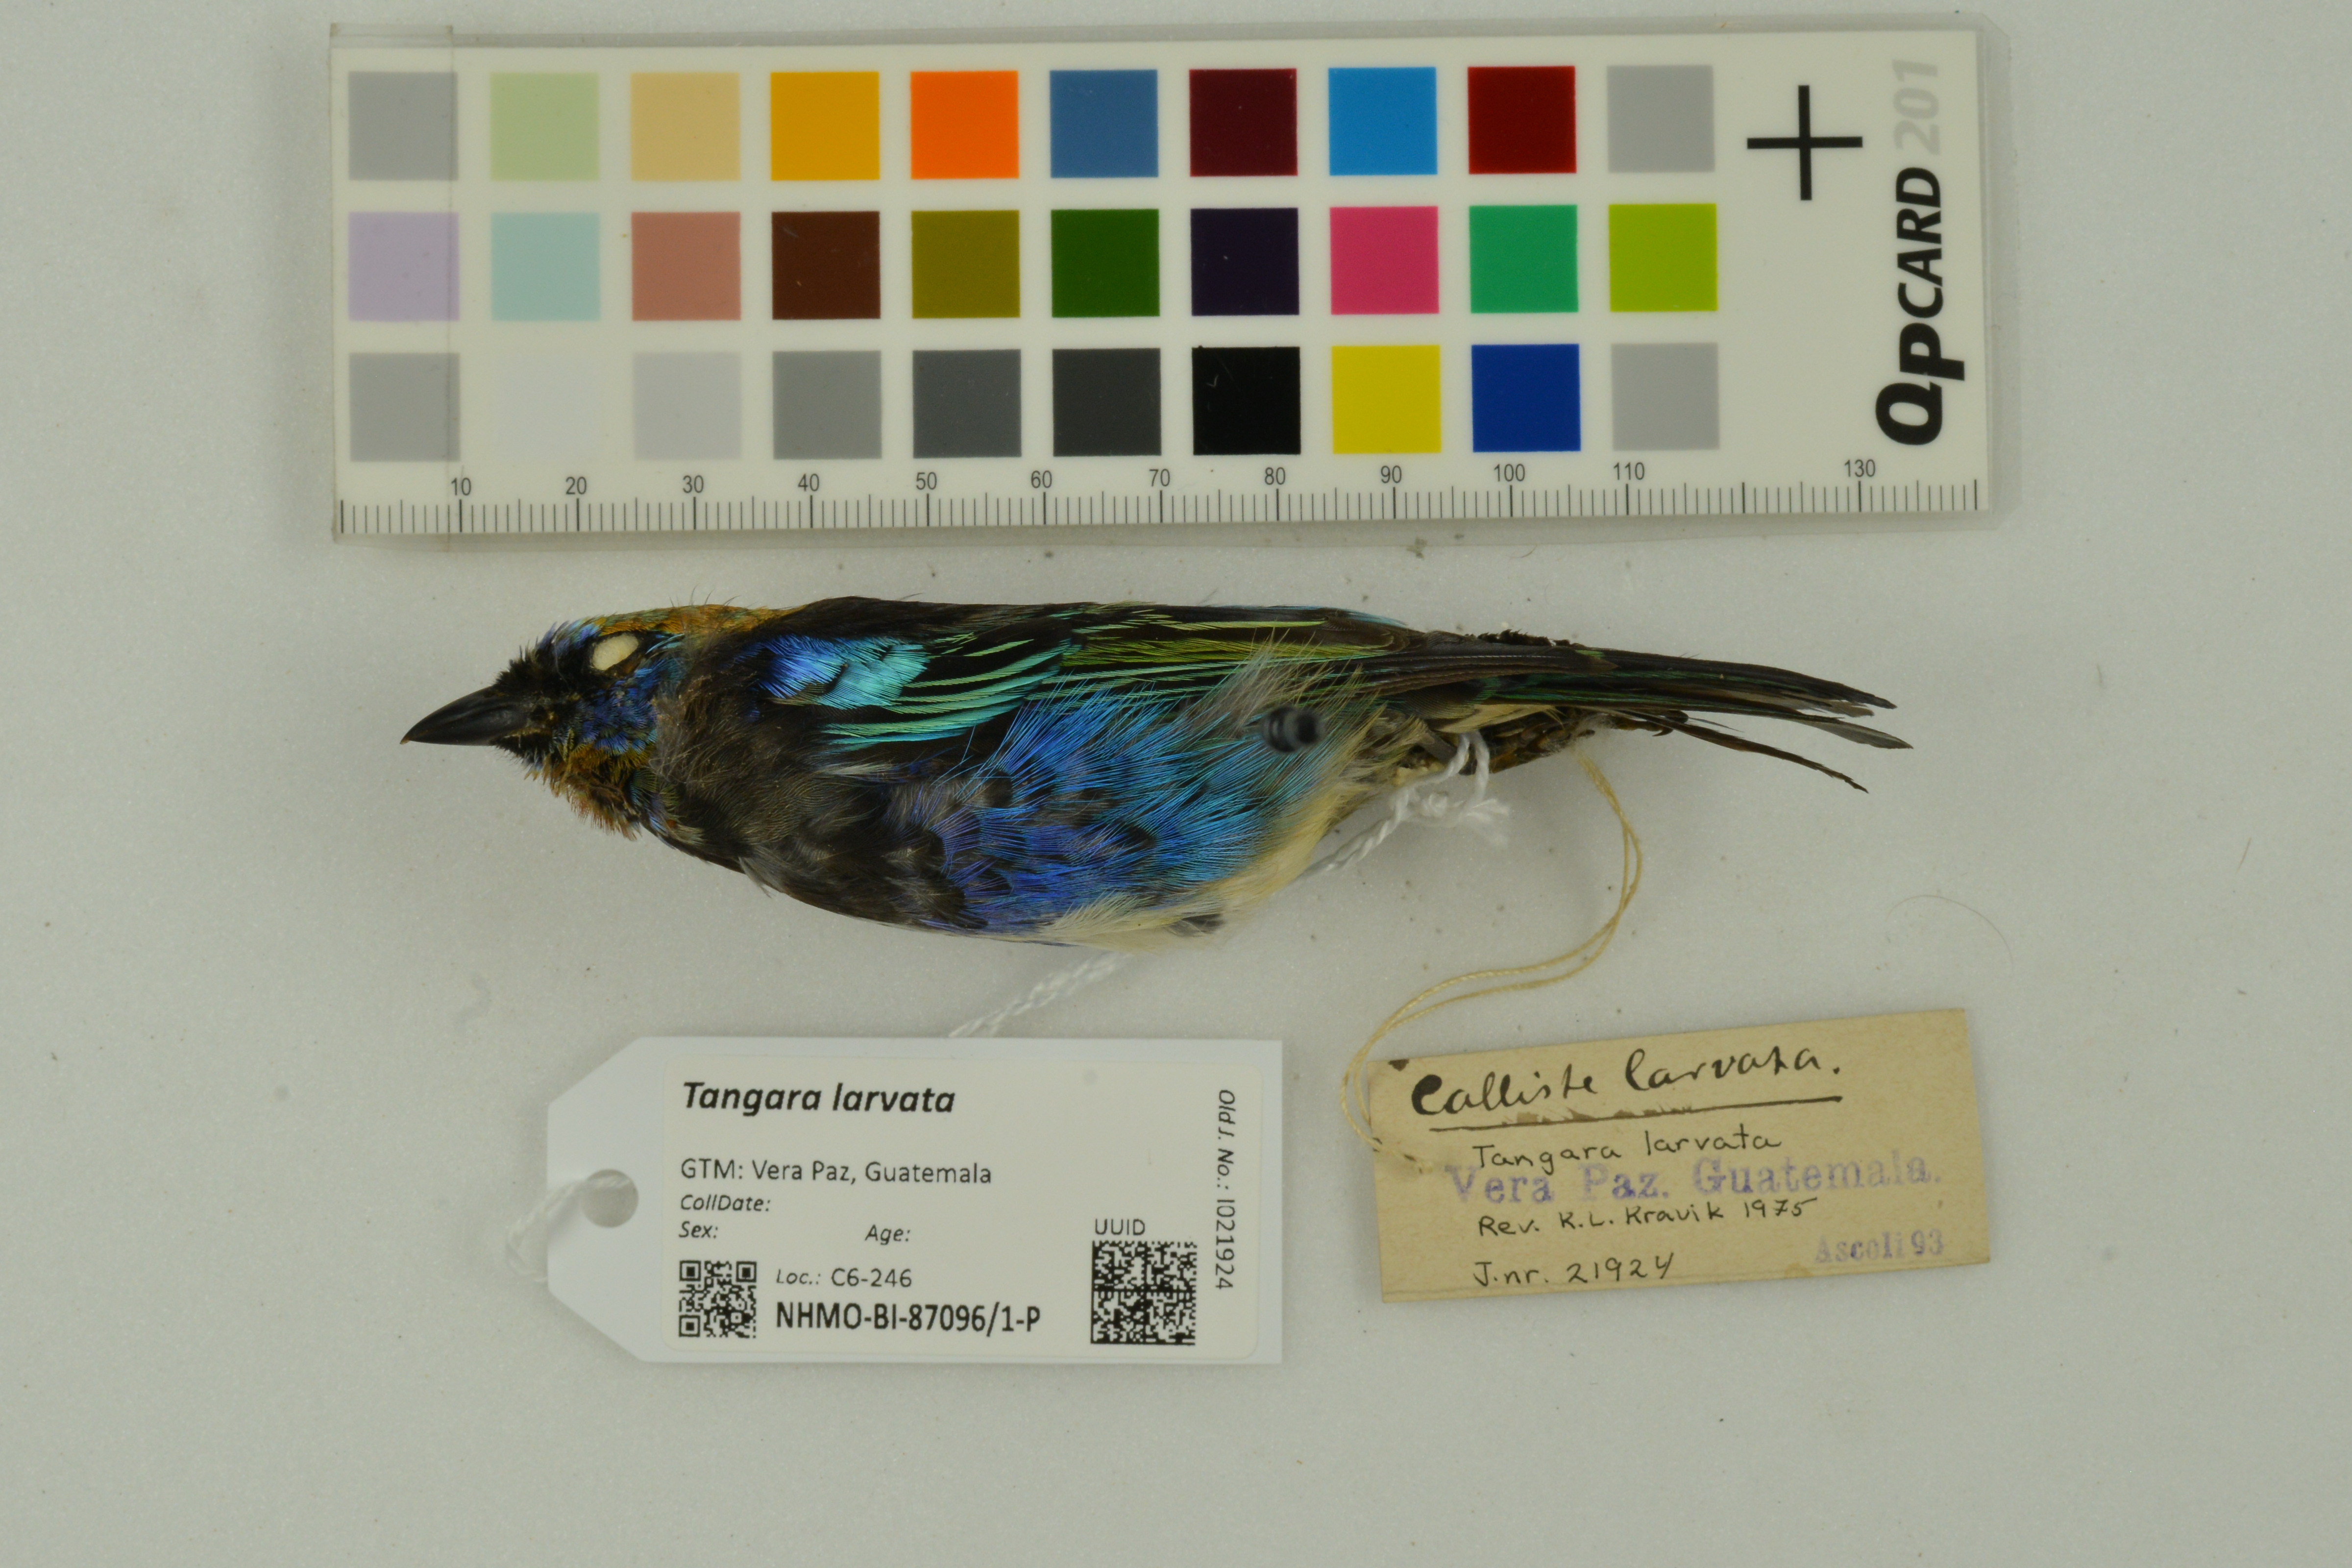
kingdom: Animalia
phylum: Chordata
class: Aves
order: Passeriformes
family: Thraupidae
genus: Stilpnia
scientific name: Stilpnia larvata
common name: Golden-hooded tanager
